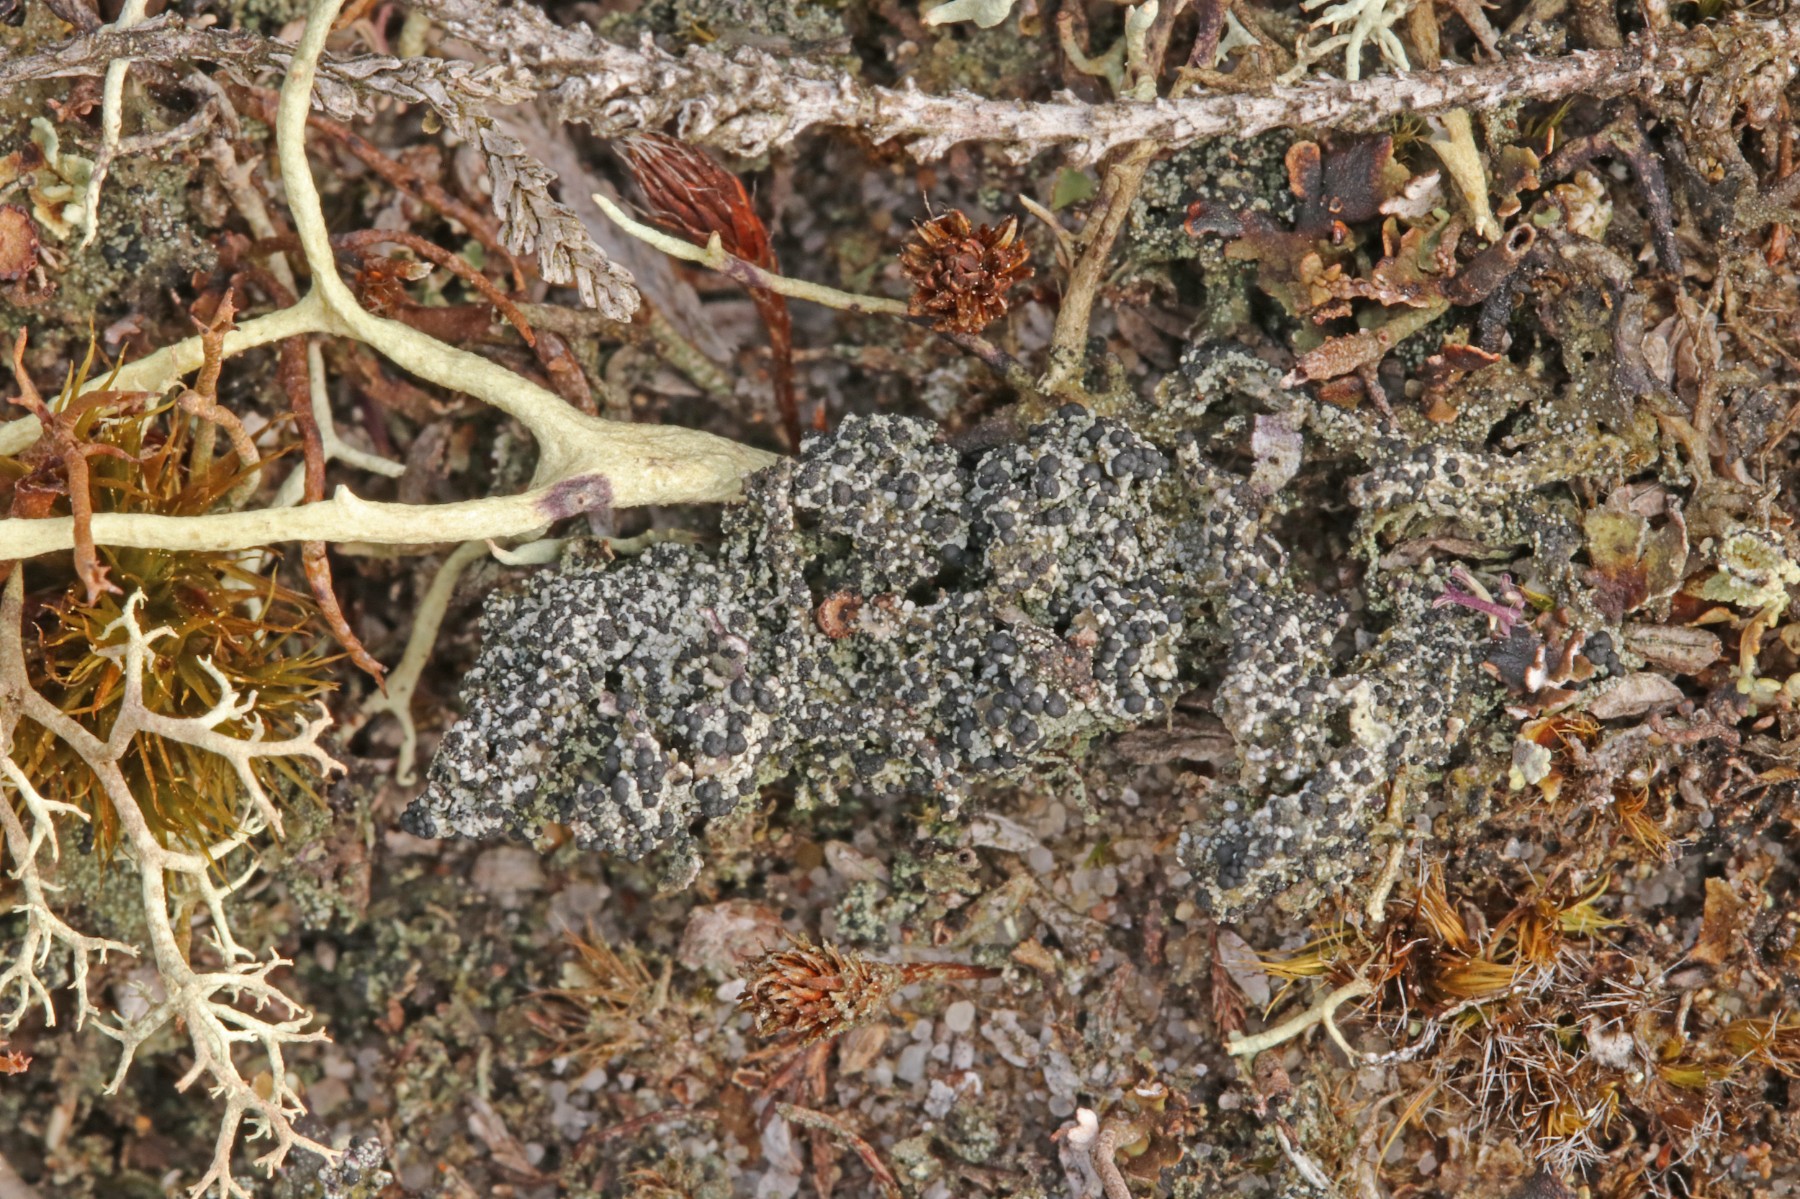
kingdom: Fungi
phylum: Ascomycota
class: Lecanoromycetes
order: Lecanorales
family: Byssolomataceae
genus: Micarea
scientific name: Micarea lignaria
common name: tørve-knaplav
